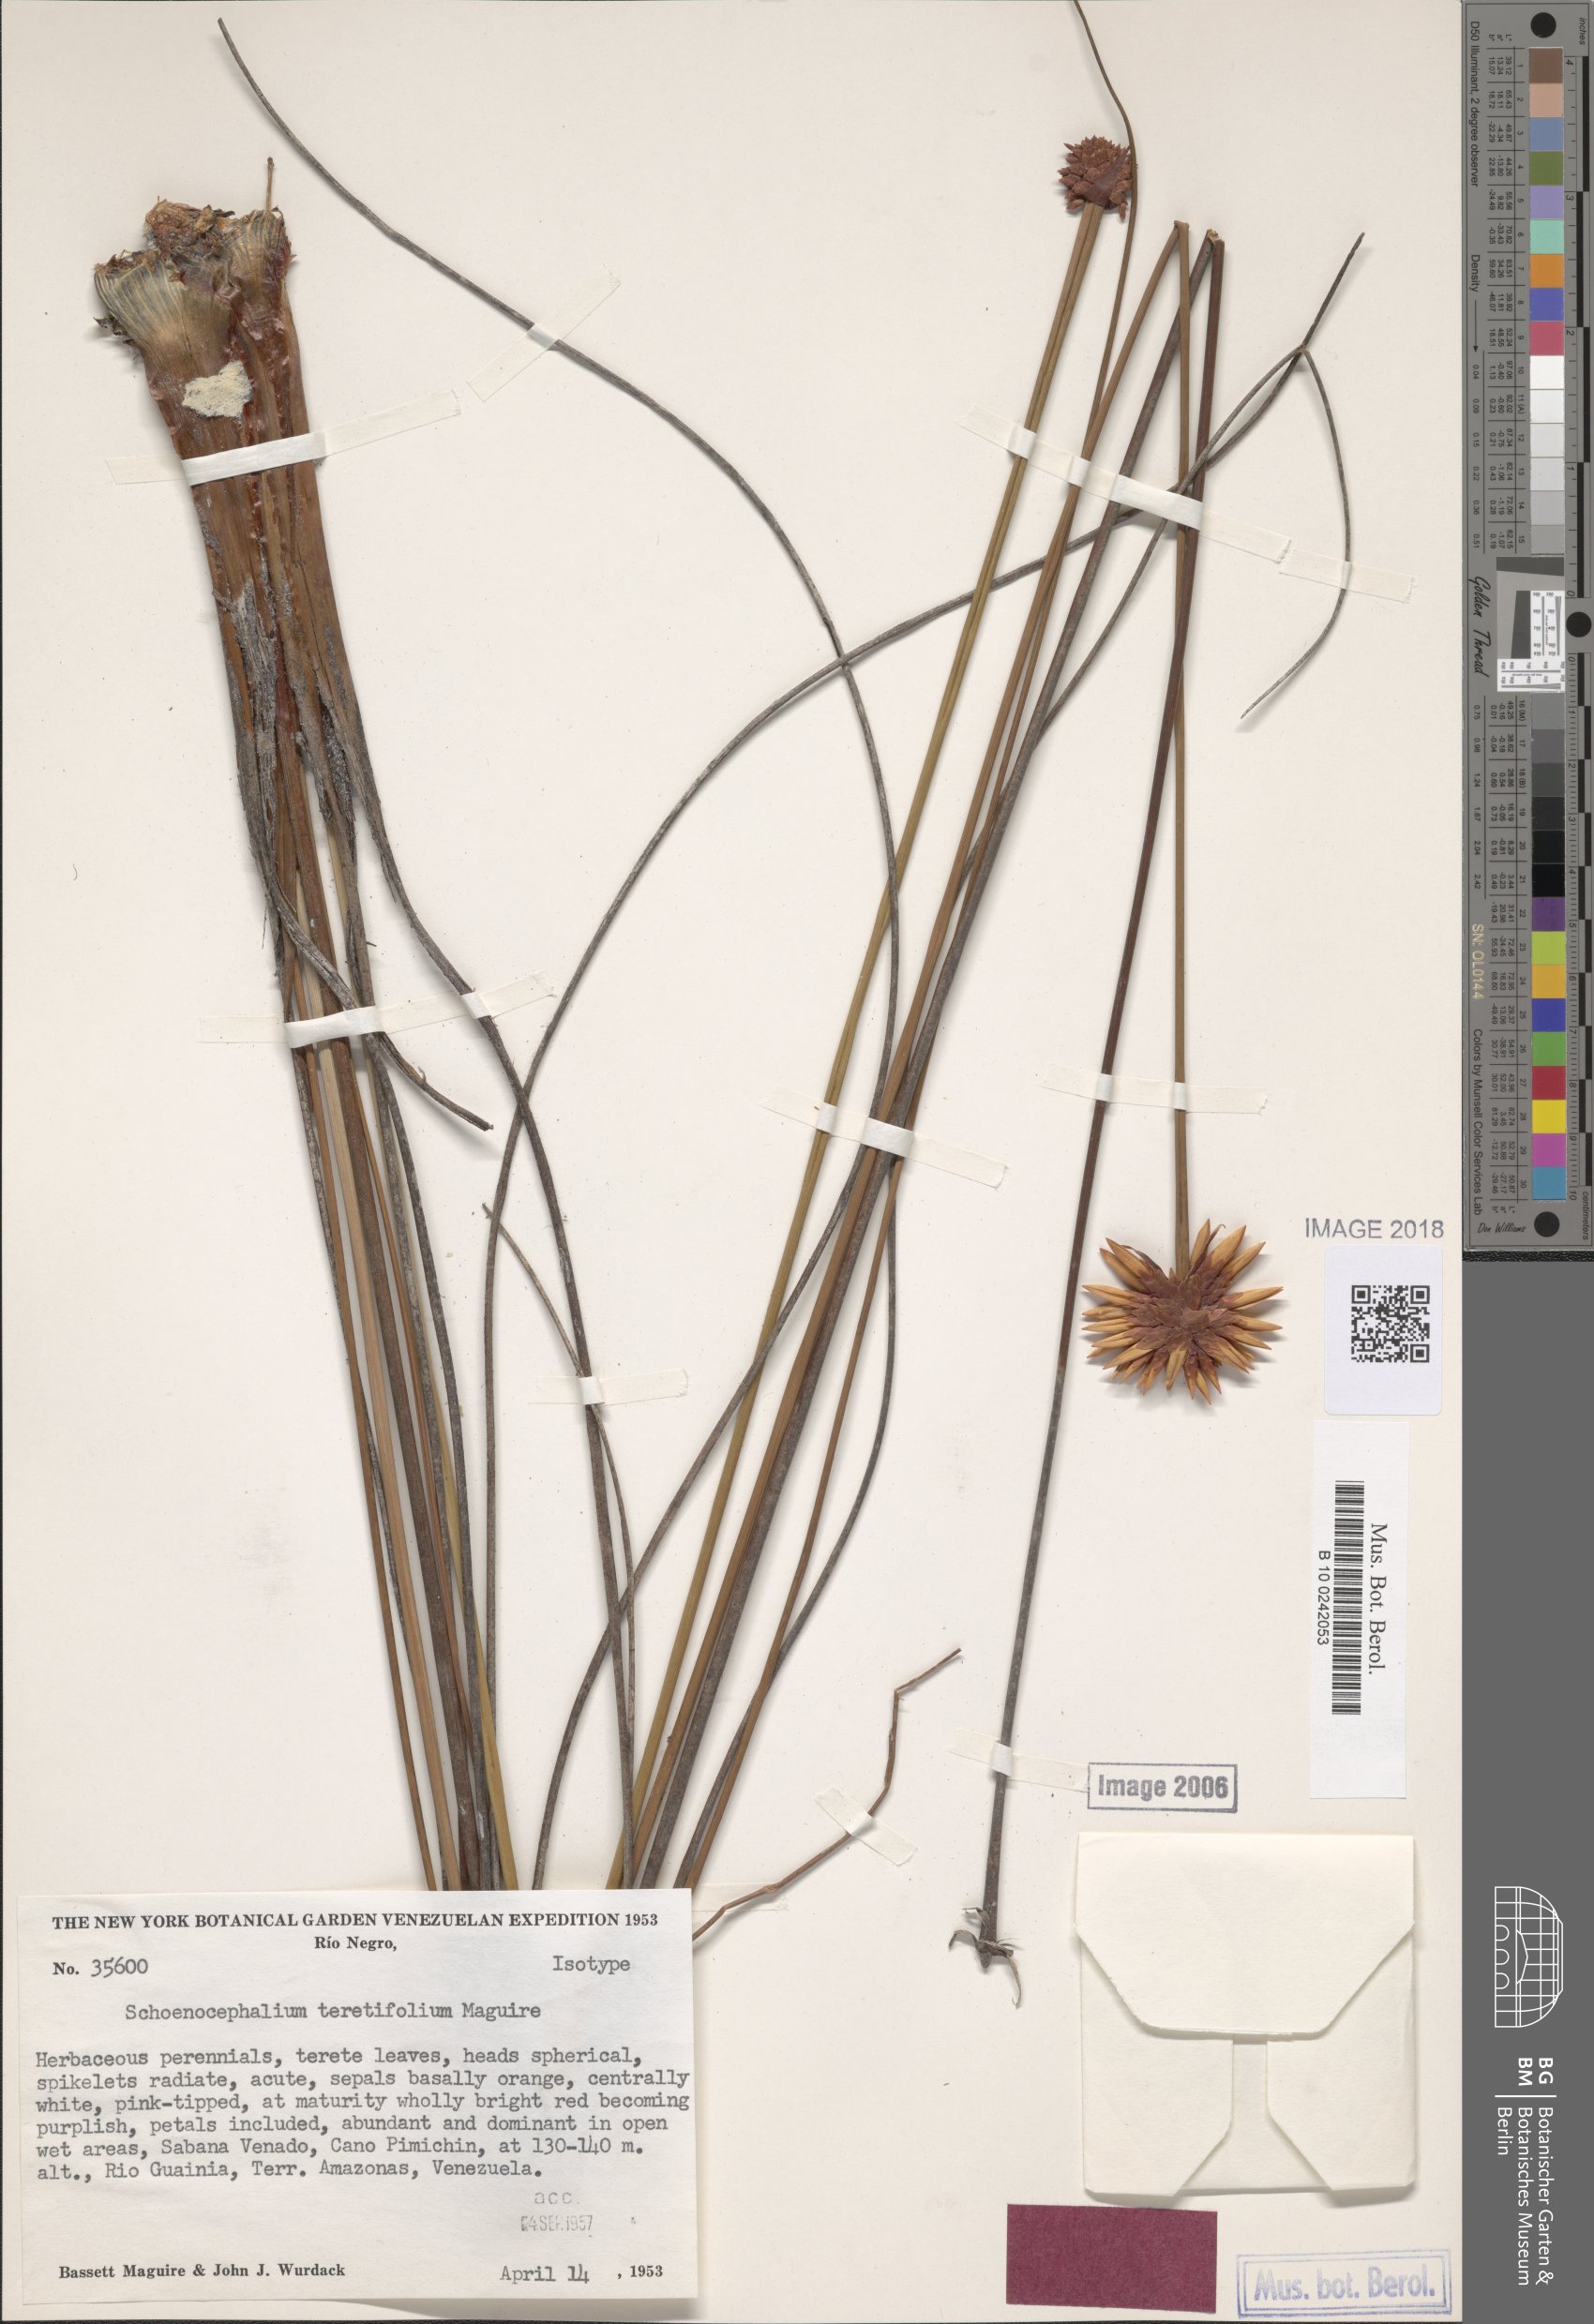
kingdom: Plantae
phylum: Tracheophyta
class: Liliopsida
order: Poales
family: Rapateaceae
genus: Schoenocephalium
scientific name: Schoenocephalium teretifolium
